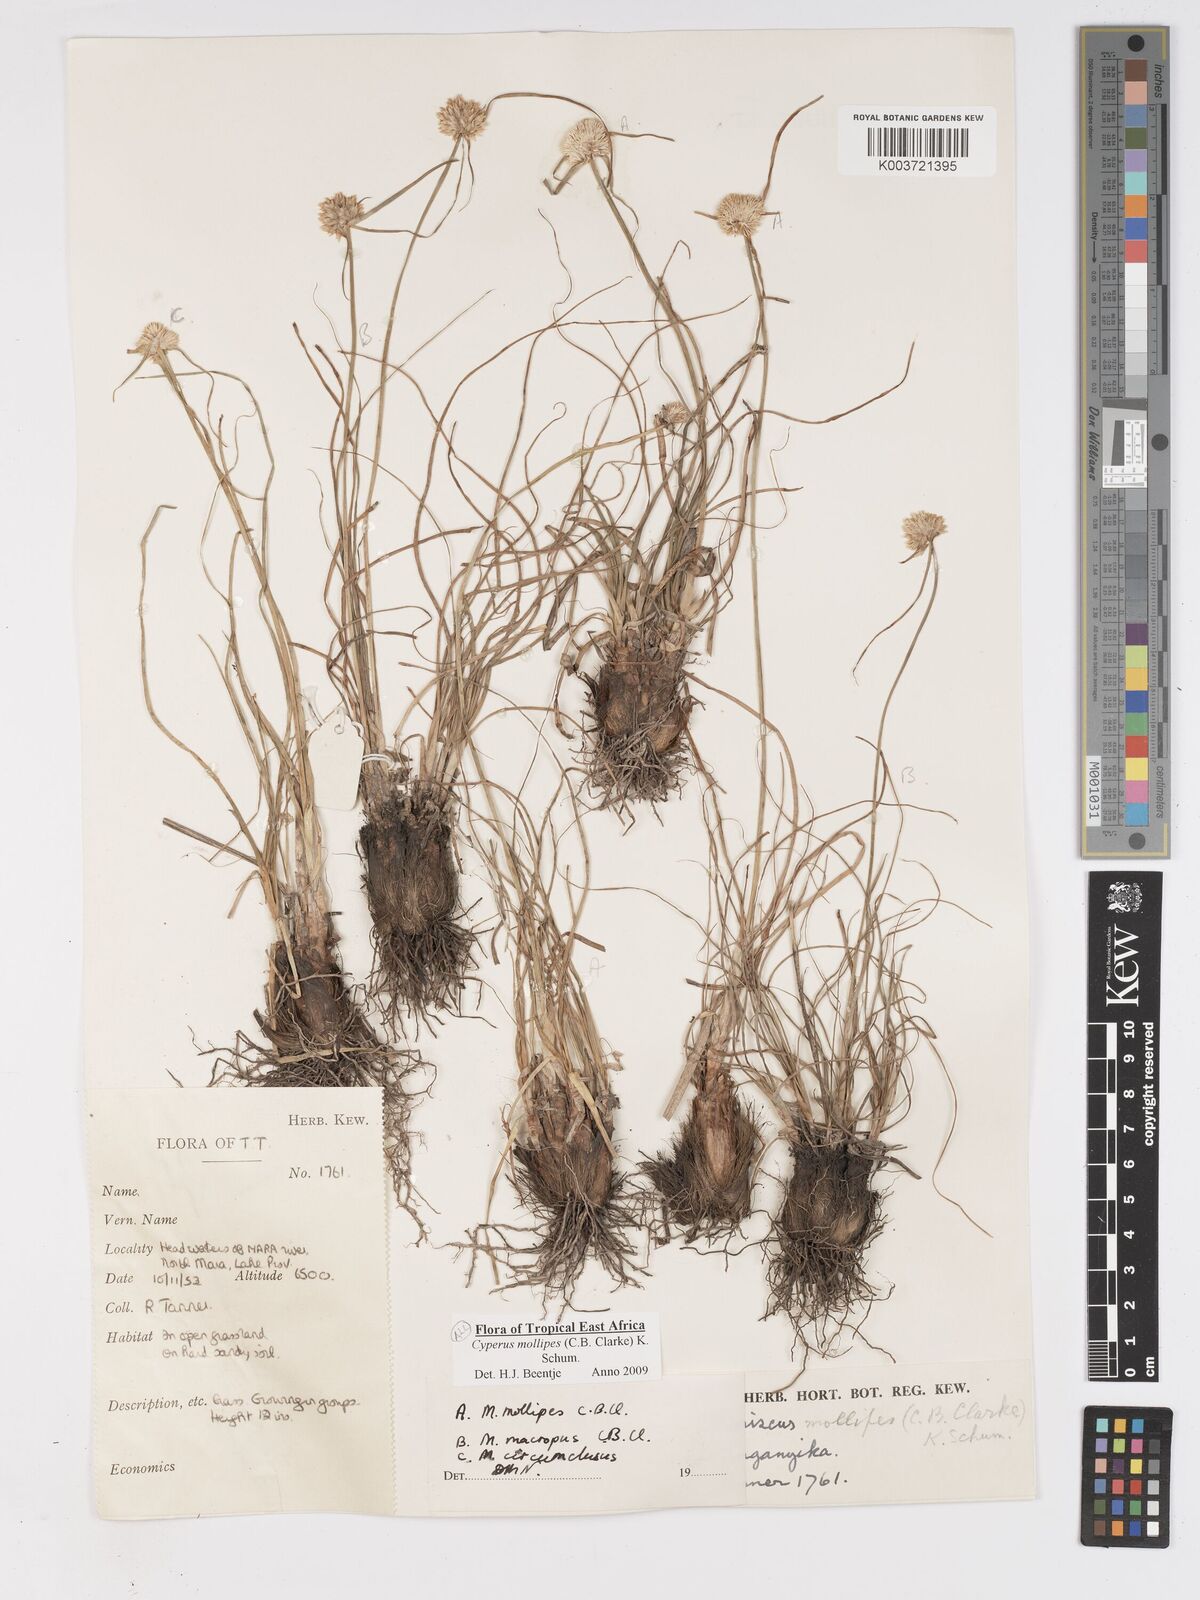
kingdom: Plantae
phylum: Tracheophyta
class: Liliopsida
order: Poales
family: Cyperaceae
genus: Cyperus
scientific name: Cyperus mollipes
